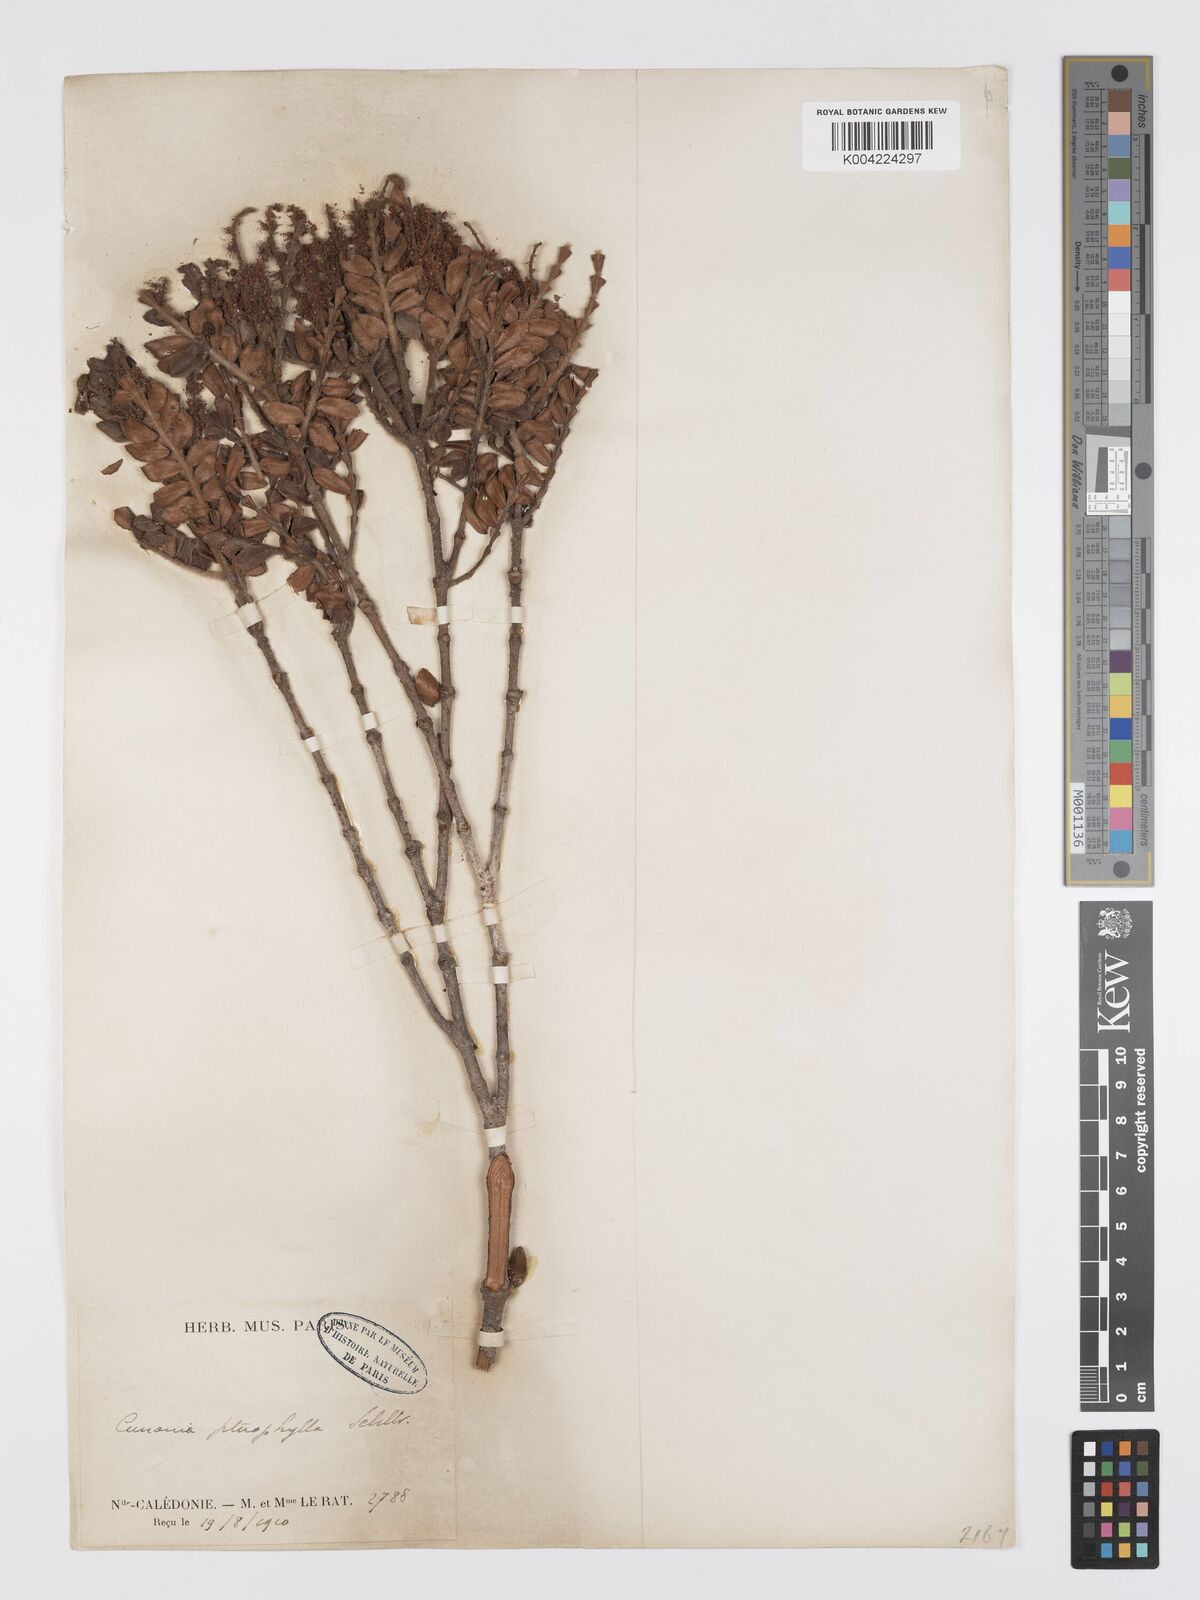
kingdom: Plantae
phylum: Tracheophyta
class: Magnoliopsida
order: Oxalidales
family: Cunoniaceae
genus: Cunonia
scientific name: Cunonia pterophylla
